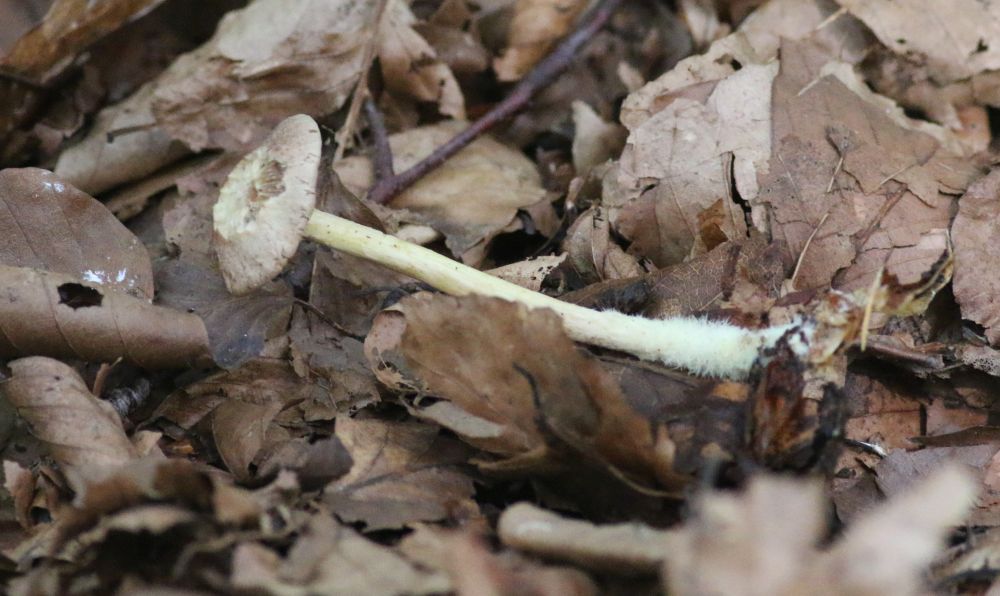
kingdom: Fungi
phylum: Basidiomycota
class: Agaricomycetes
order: Agaricales
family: Omphalotaceae
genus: Collybiopsis
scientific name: Collybiopsis peronata
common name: bestøvlet fladhat
